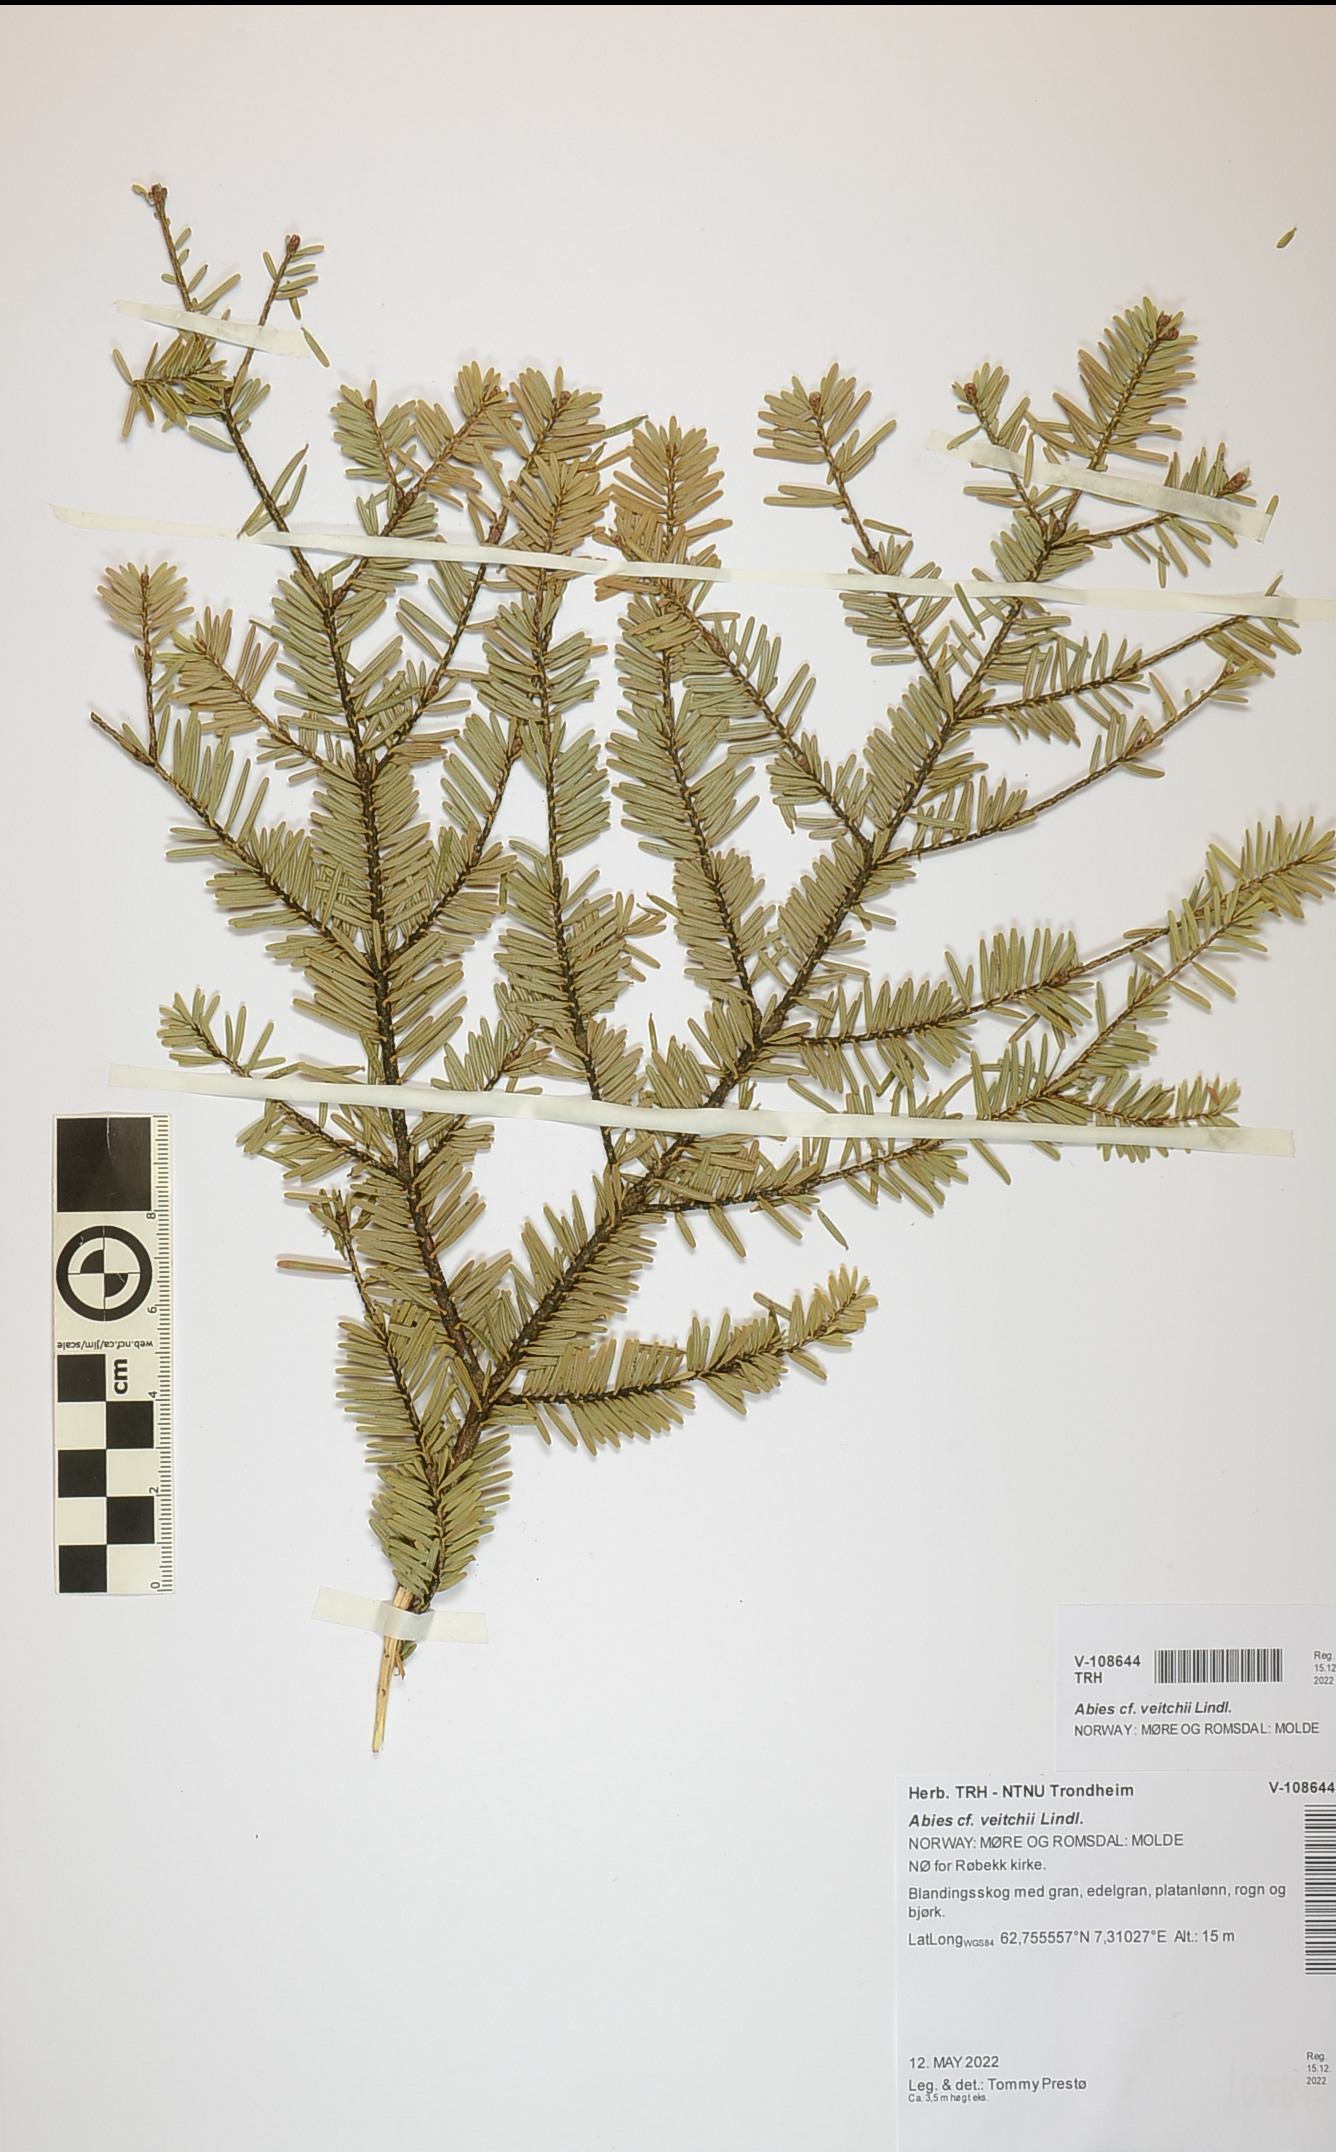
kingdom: Plantae
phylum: Tracheophyta
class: Pinopsida
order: Pinales
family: Pinaceae
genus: Abies
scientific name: Abies veitchii
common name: Veitch’s fir
